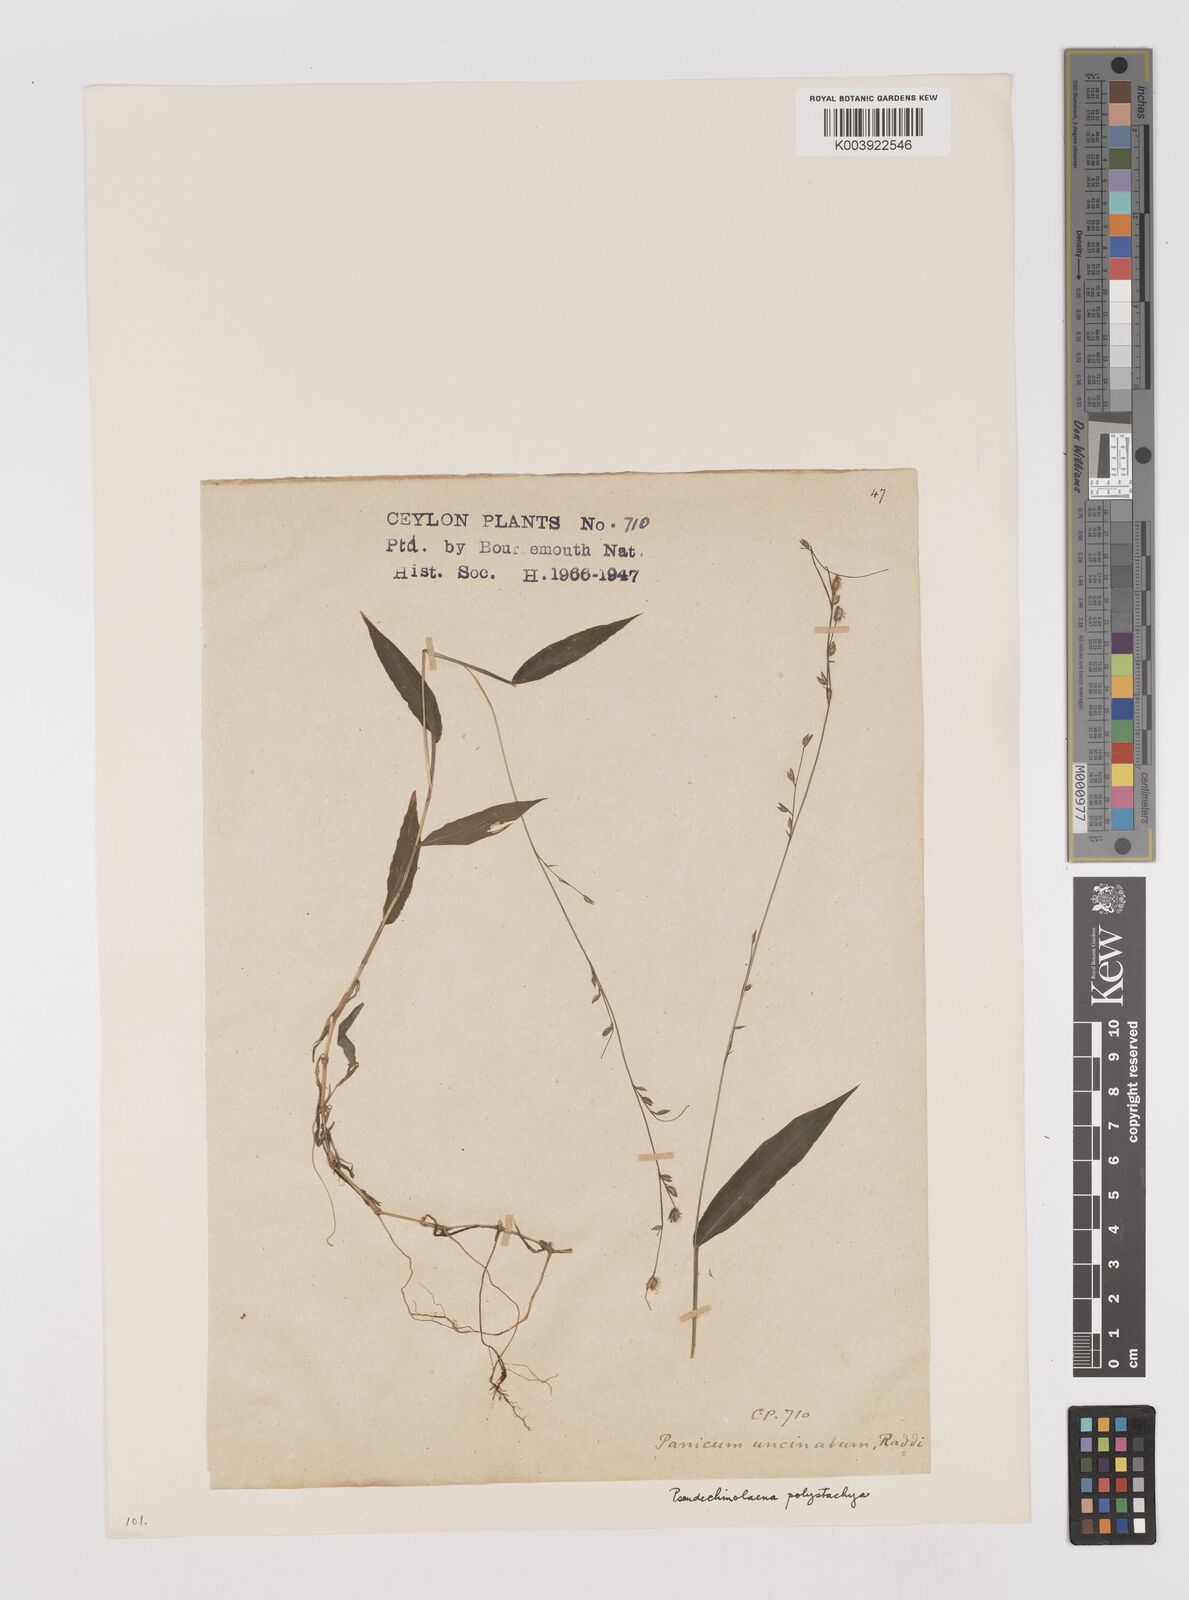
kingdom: Plantae
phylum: Tracheophyta
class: Liliopsida
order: Poales
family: Poaceae
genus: Pseudechinolaena
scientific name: Pseudechinolaena polystachya
